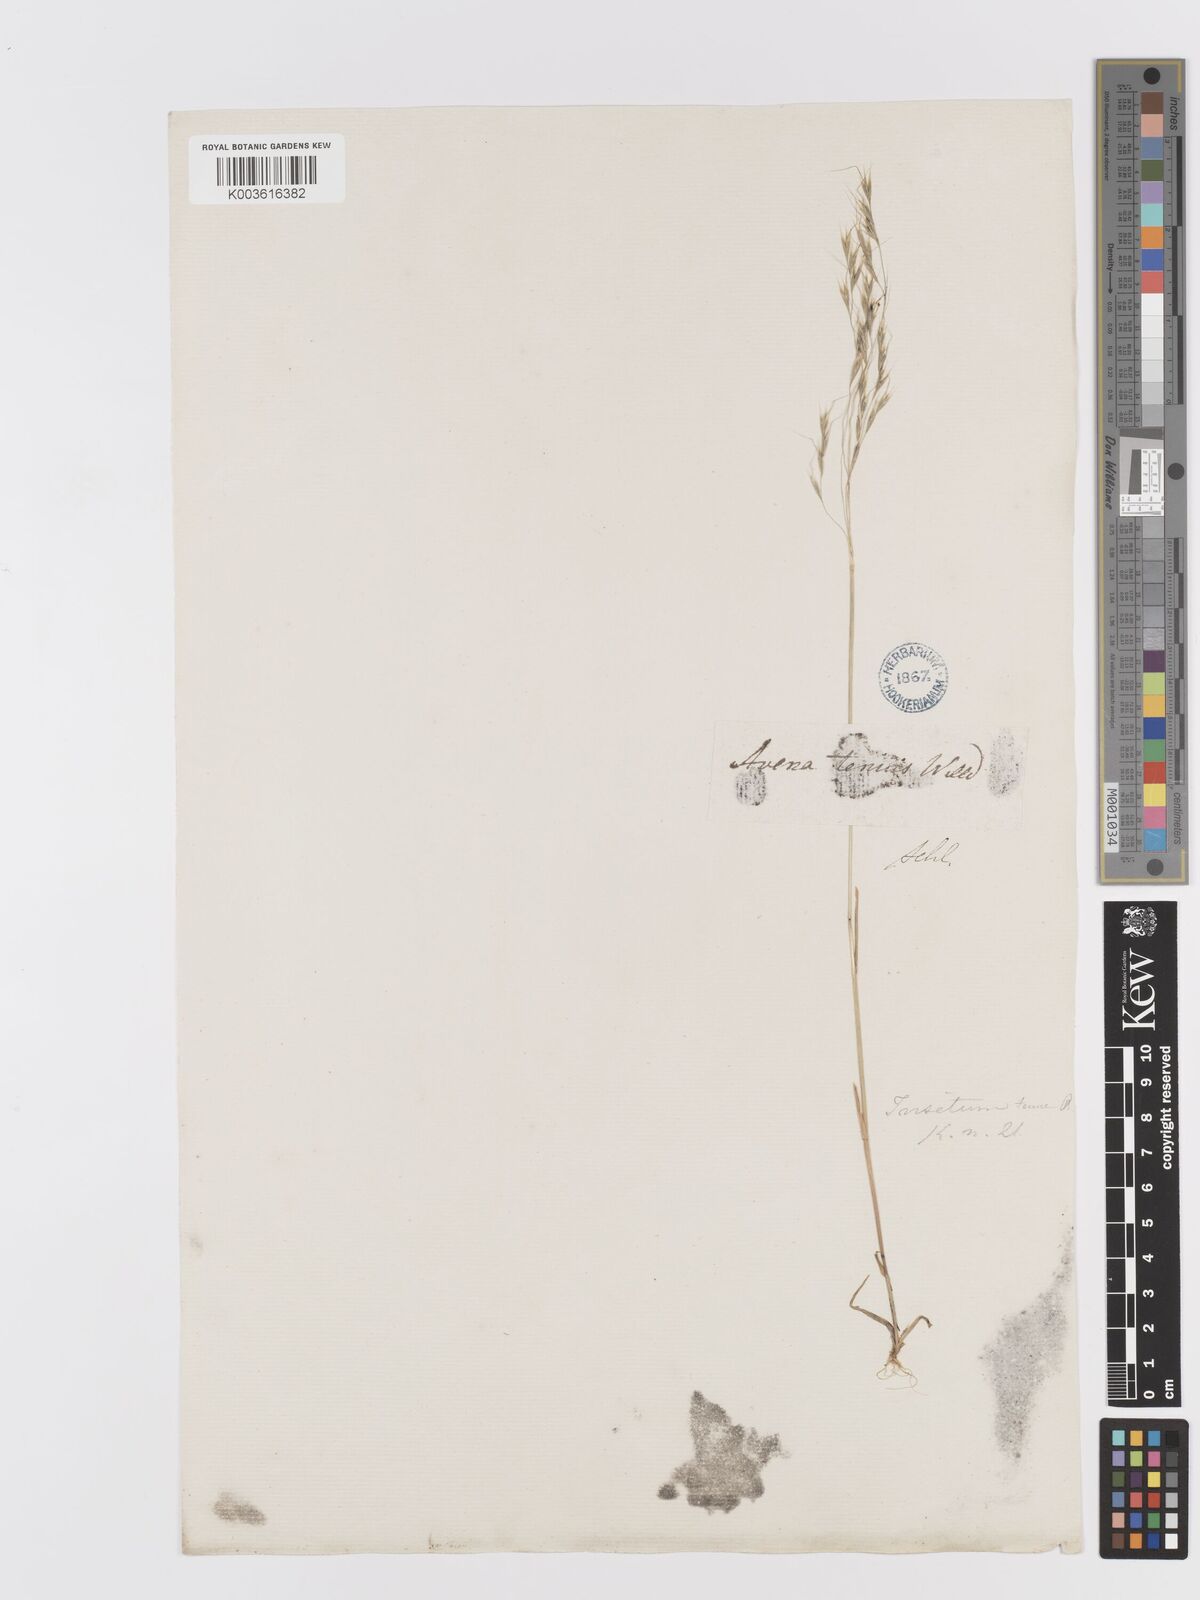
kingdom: Plantae
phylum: Tracheophyta
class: Liliopsida
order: Poales
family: Poaceae
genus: Ventenata
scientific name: Ventenata dubia
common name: North africa grass
